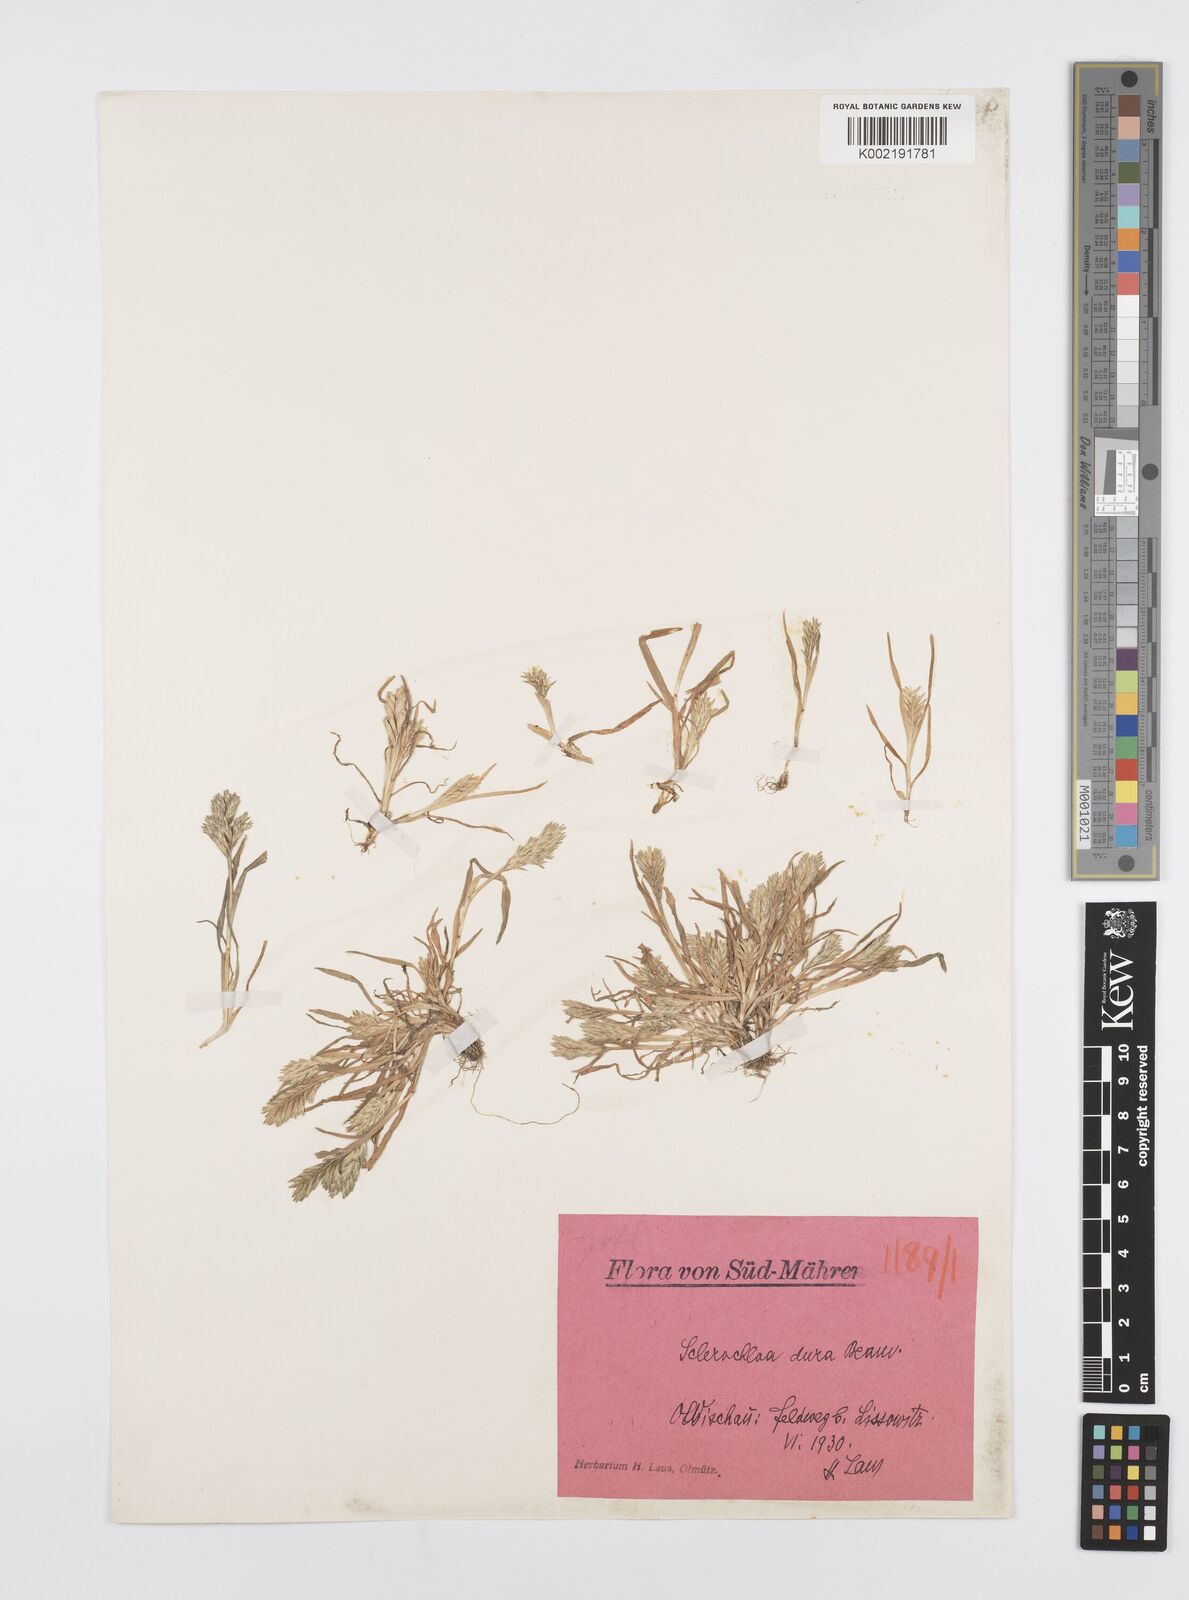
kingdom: Plantae
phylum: Tracheophyta
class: Liliopsida
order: Poales
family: Poaceae
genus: Sclerochloa
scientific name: Sclerochloa dura
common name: Common hardgrass
